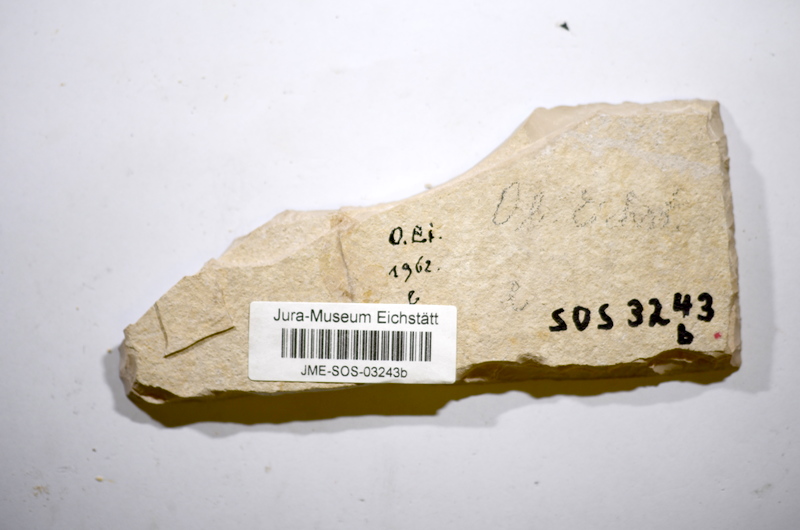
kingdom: Animalia
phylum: Chordata
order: Amiiformes
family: Caturidae
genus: Amblysemius
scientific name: Amblysemius pachyurus
